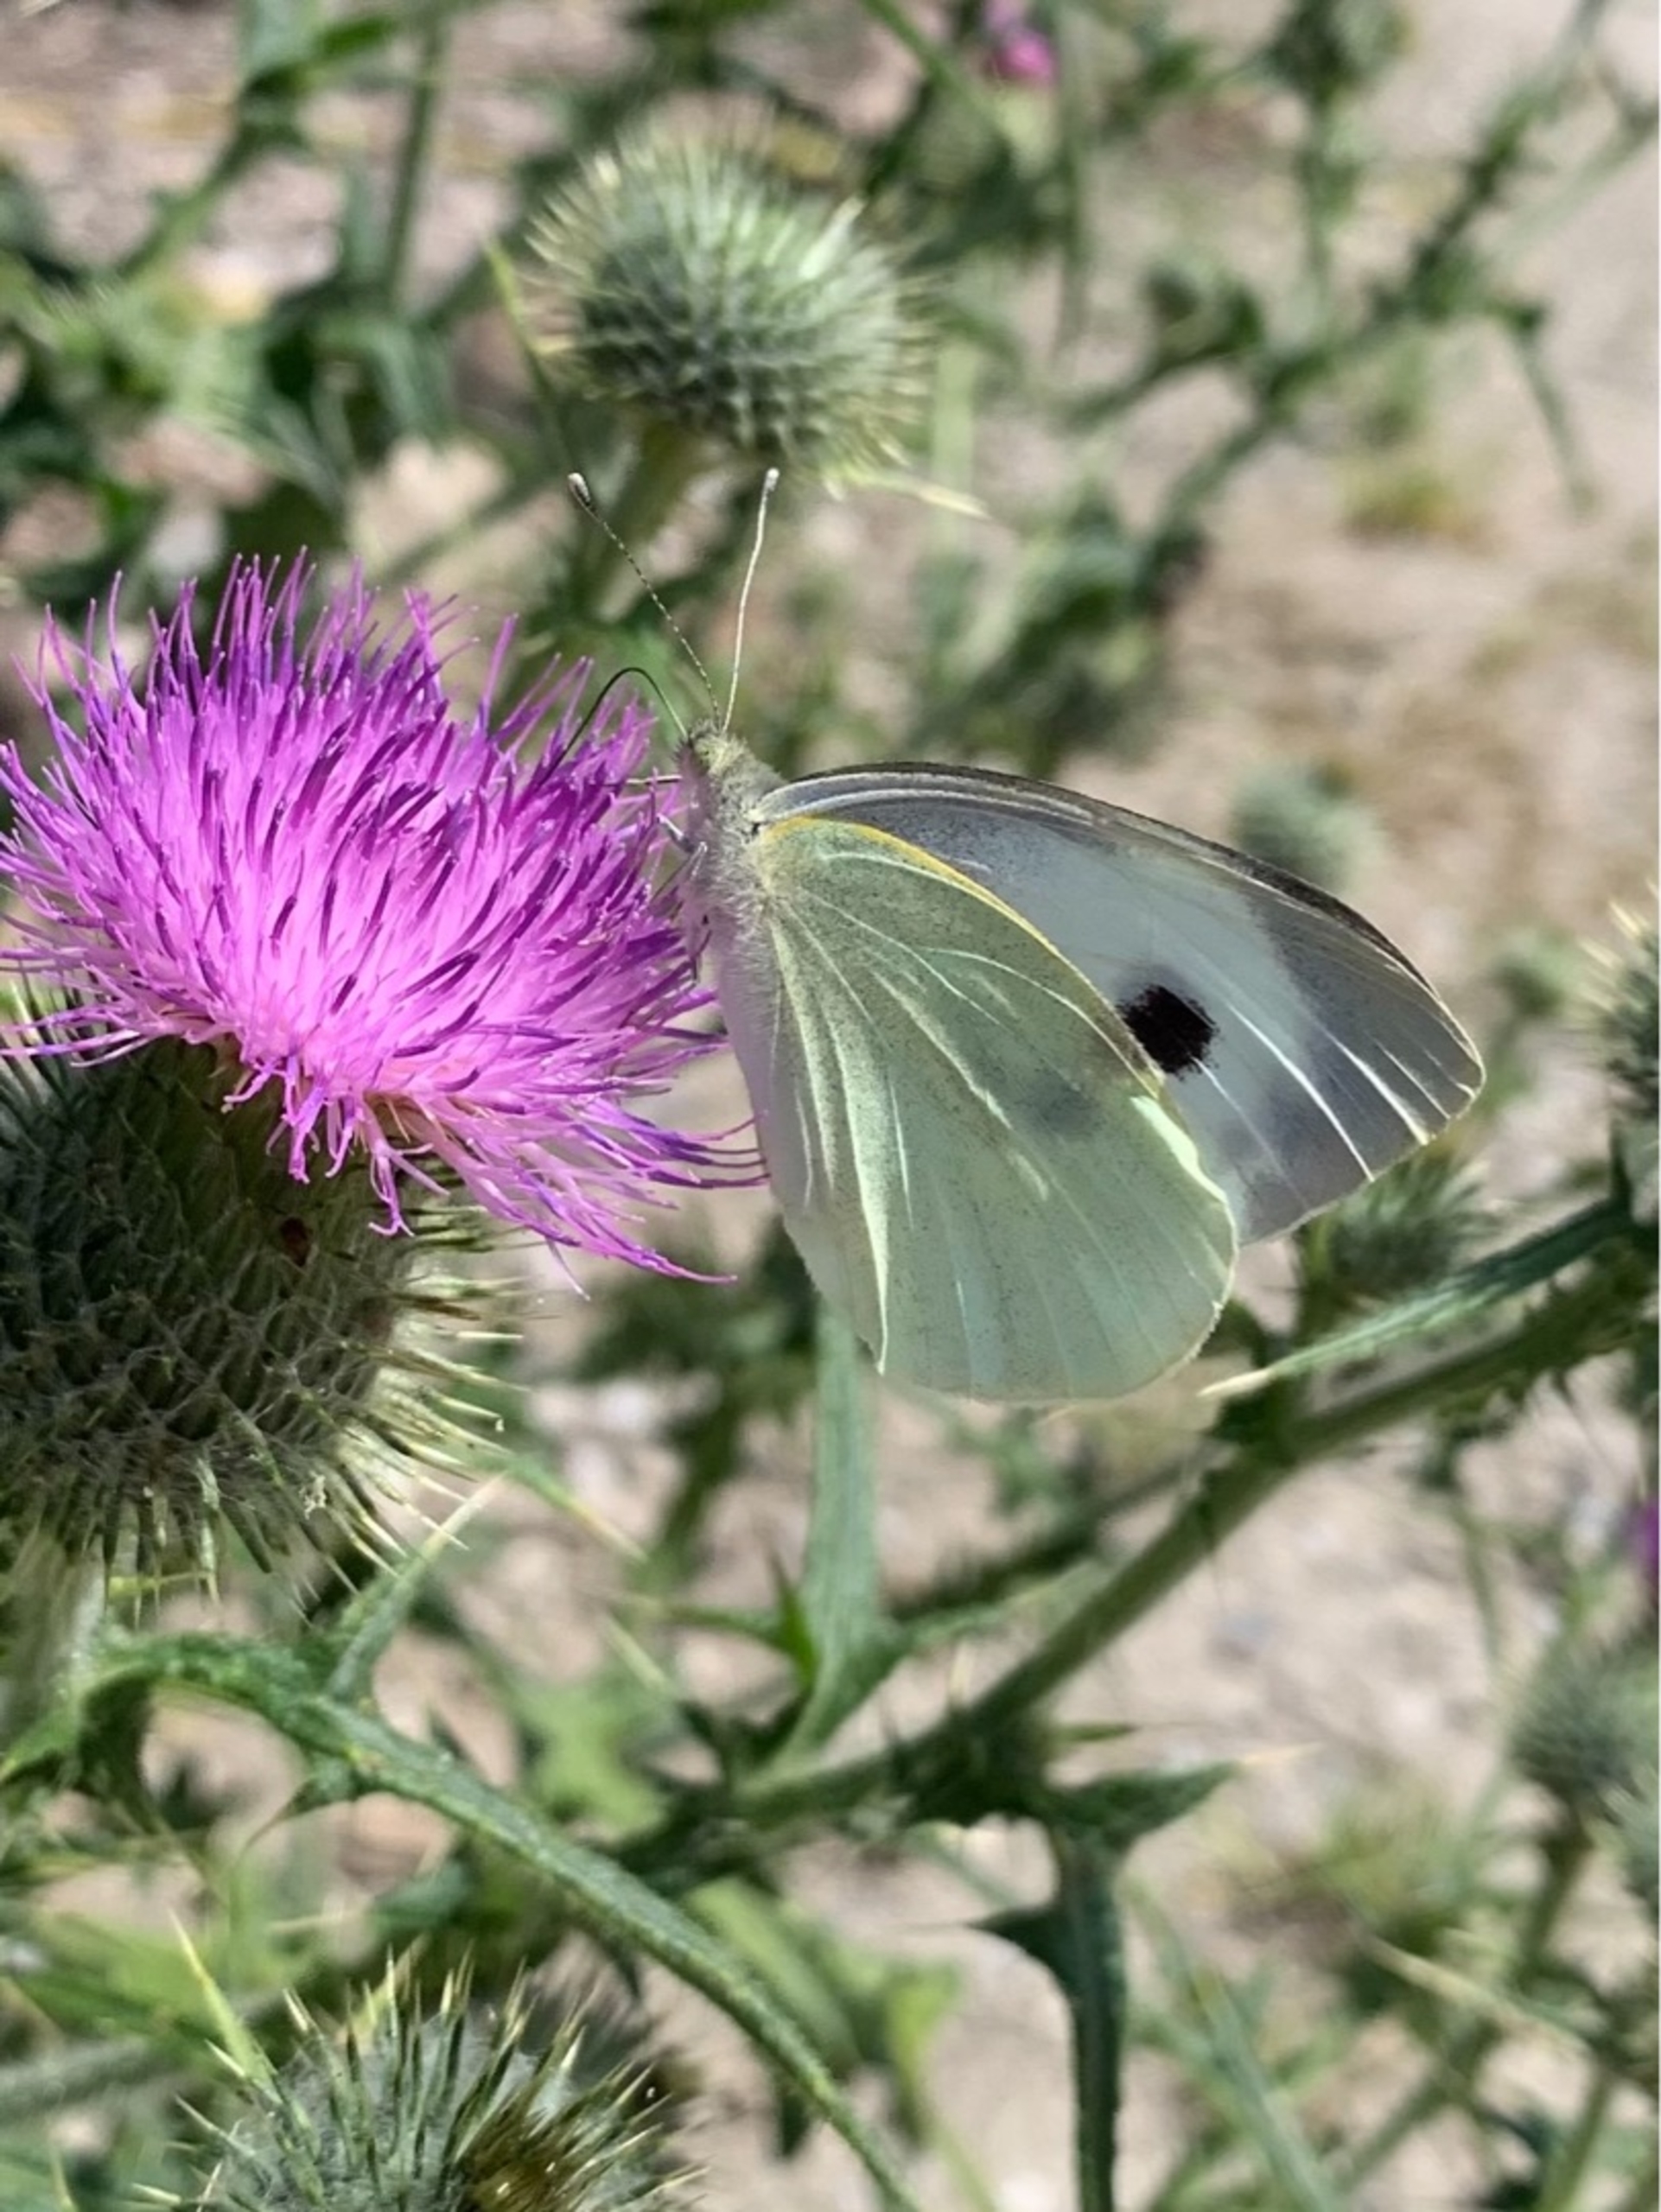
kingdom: Animalia
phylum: Arthropoda
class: Insecta
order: Lepidoptera
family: Pieridae
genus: Pieris
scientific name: Pieris brassicae
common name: Stor kålsommerfugl
